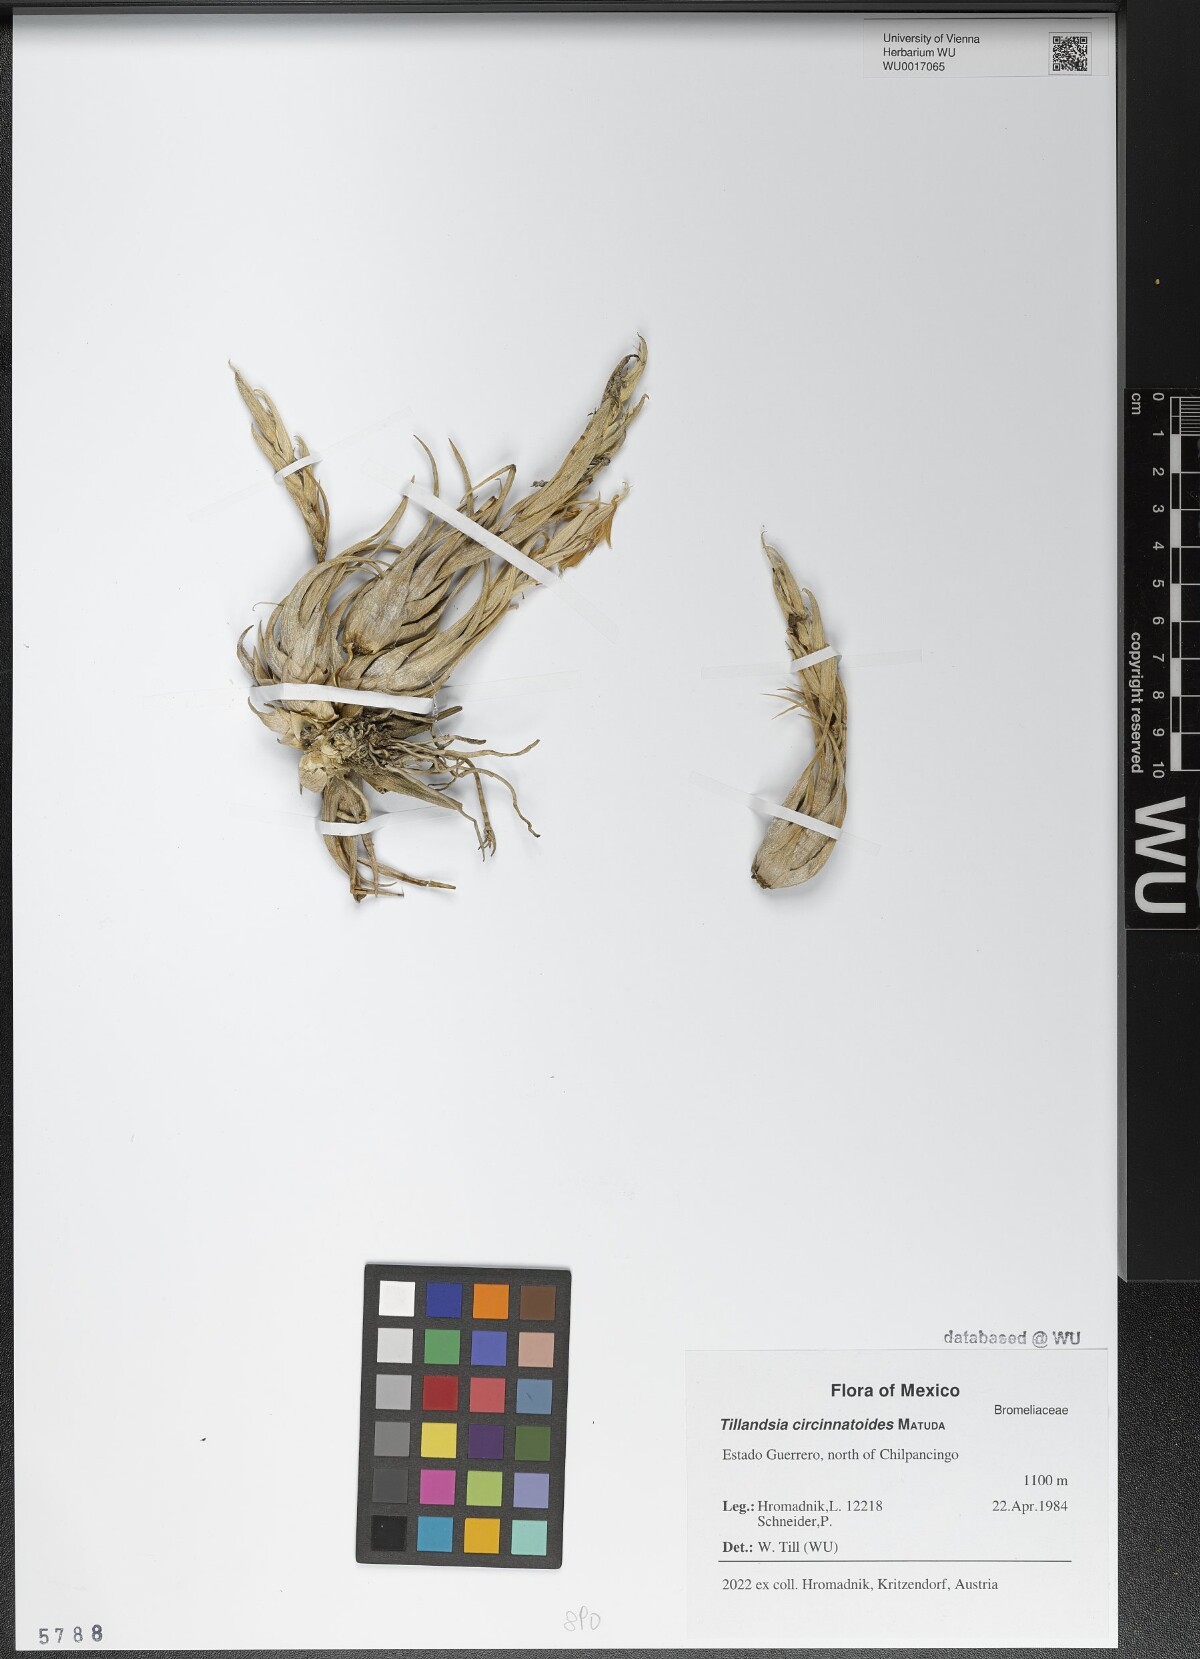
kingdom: Plantae
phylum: Tracheophyta
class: Liliopsida
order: Poales
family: Bromeliaceae
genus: Tillandsia
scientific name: Tillandsia circinnatioides
